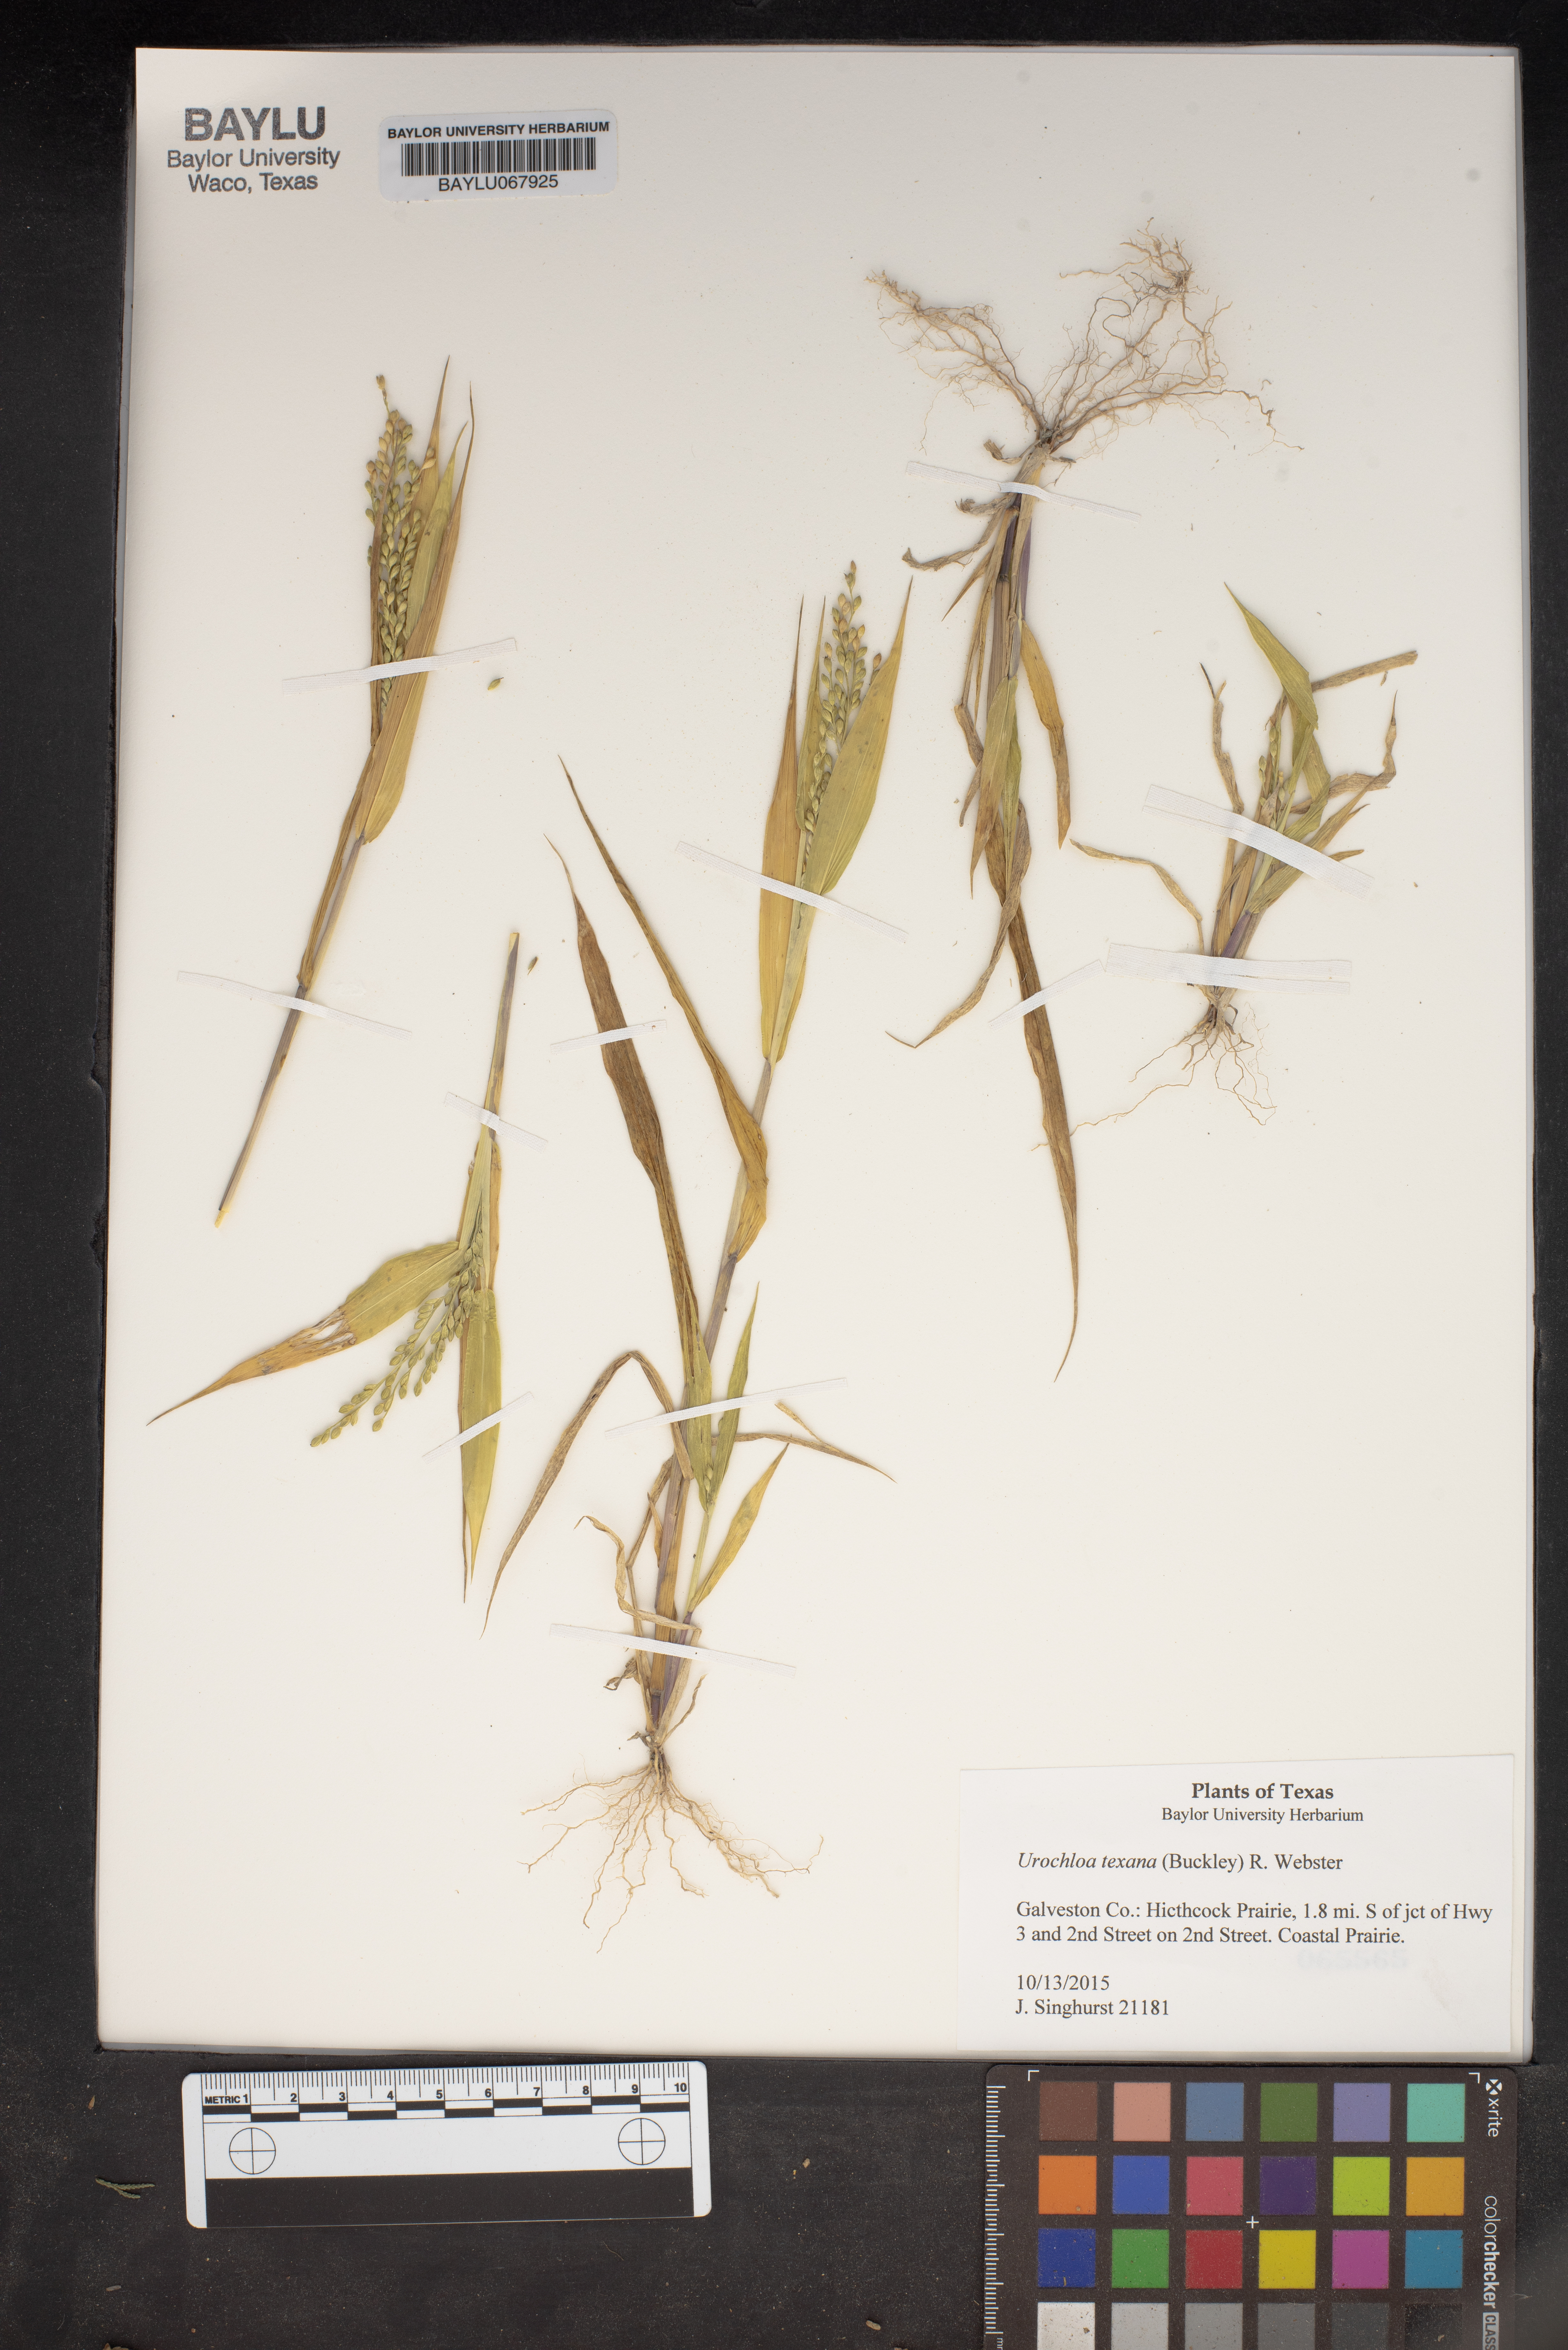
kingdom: Plantae
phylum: Tracheophyta
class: Liliopsida
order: Poales
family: Poaceae
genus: Urochloa
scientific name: Urochloa texana
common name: Texas millet
